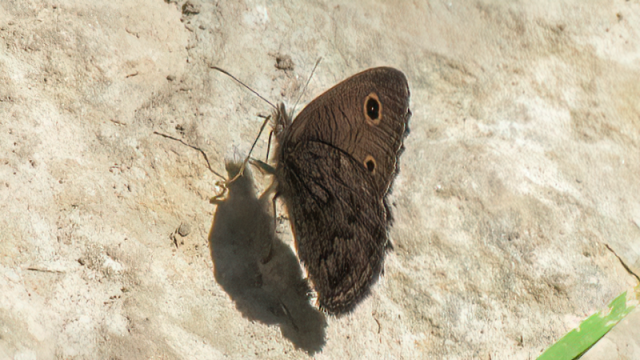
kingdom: Animalia
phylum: Arthropoda
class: Insecta
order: Lepidoptera
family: Nymphalidae
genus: Cercyonis
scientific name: Cercyonis oetus
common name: Small Wood-Nymph
